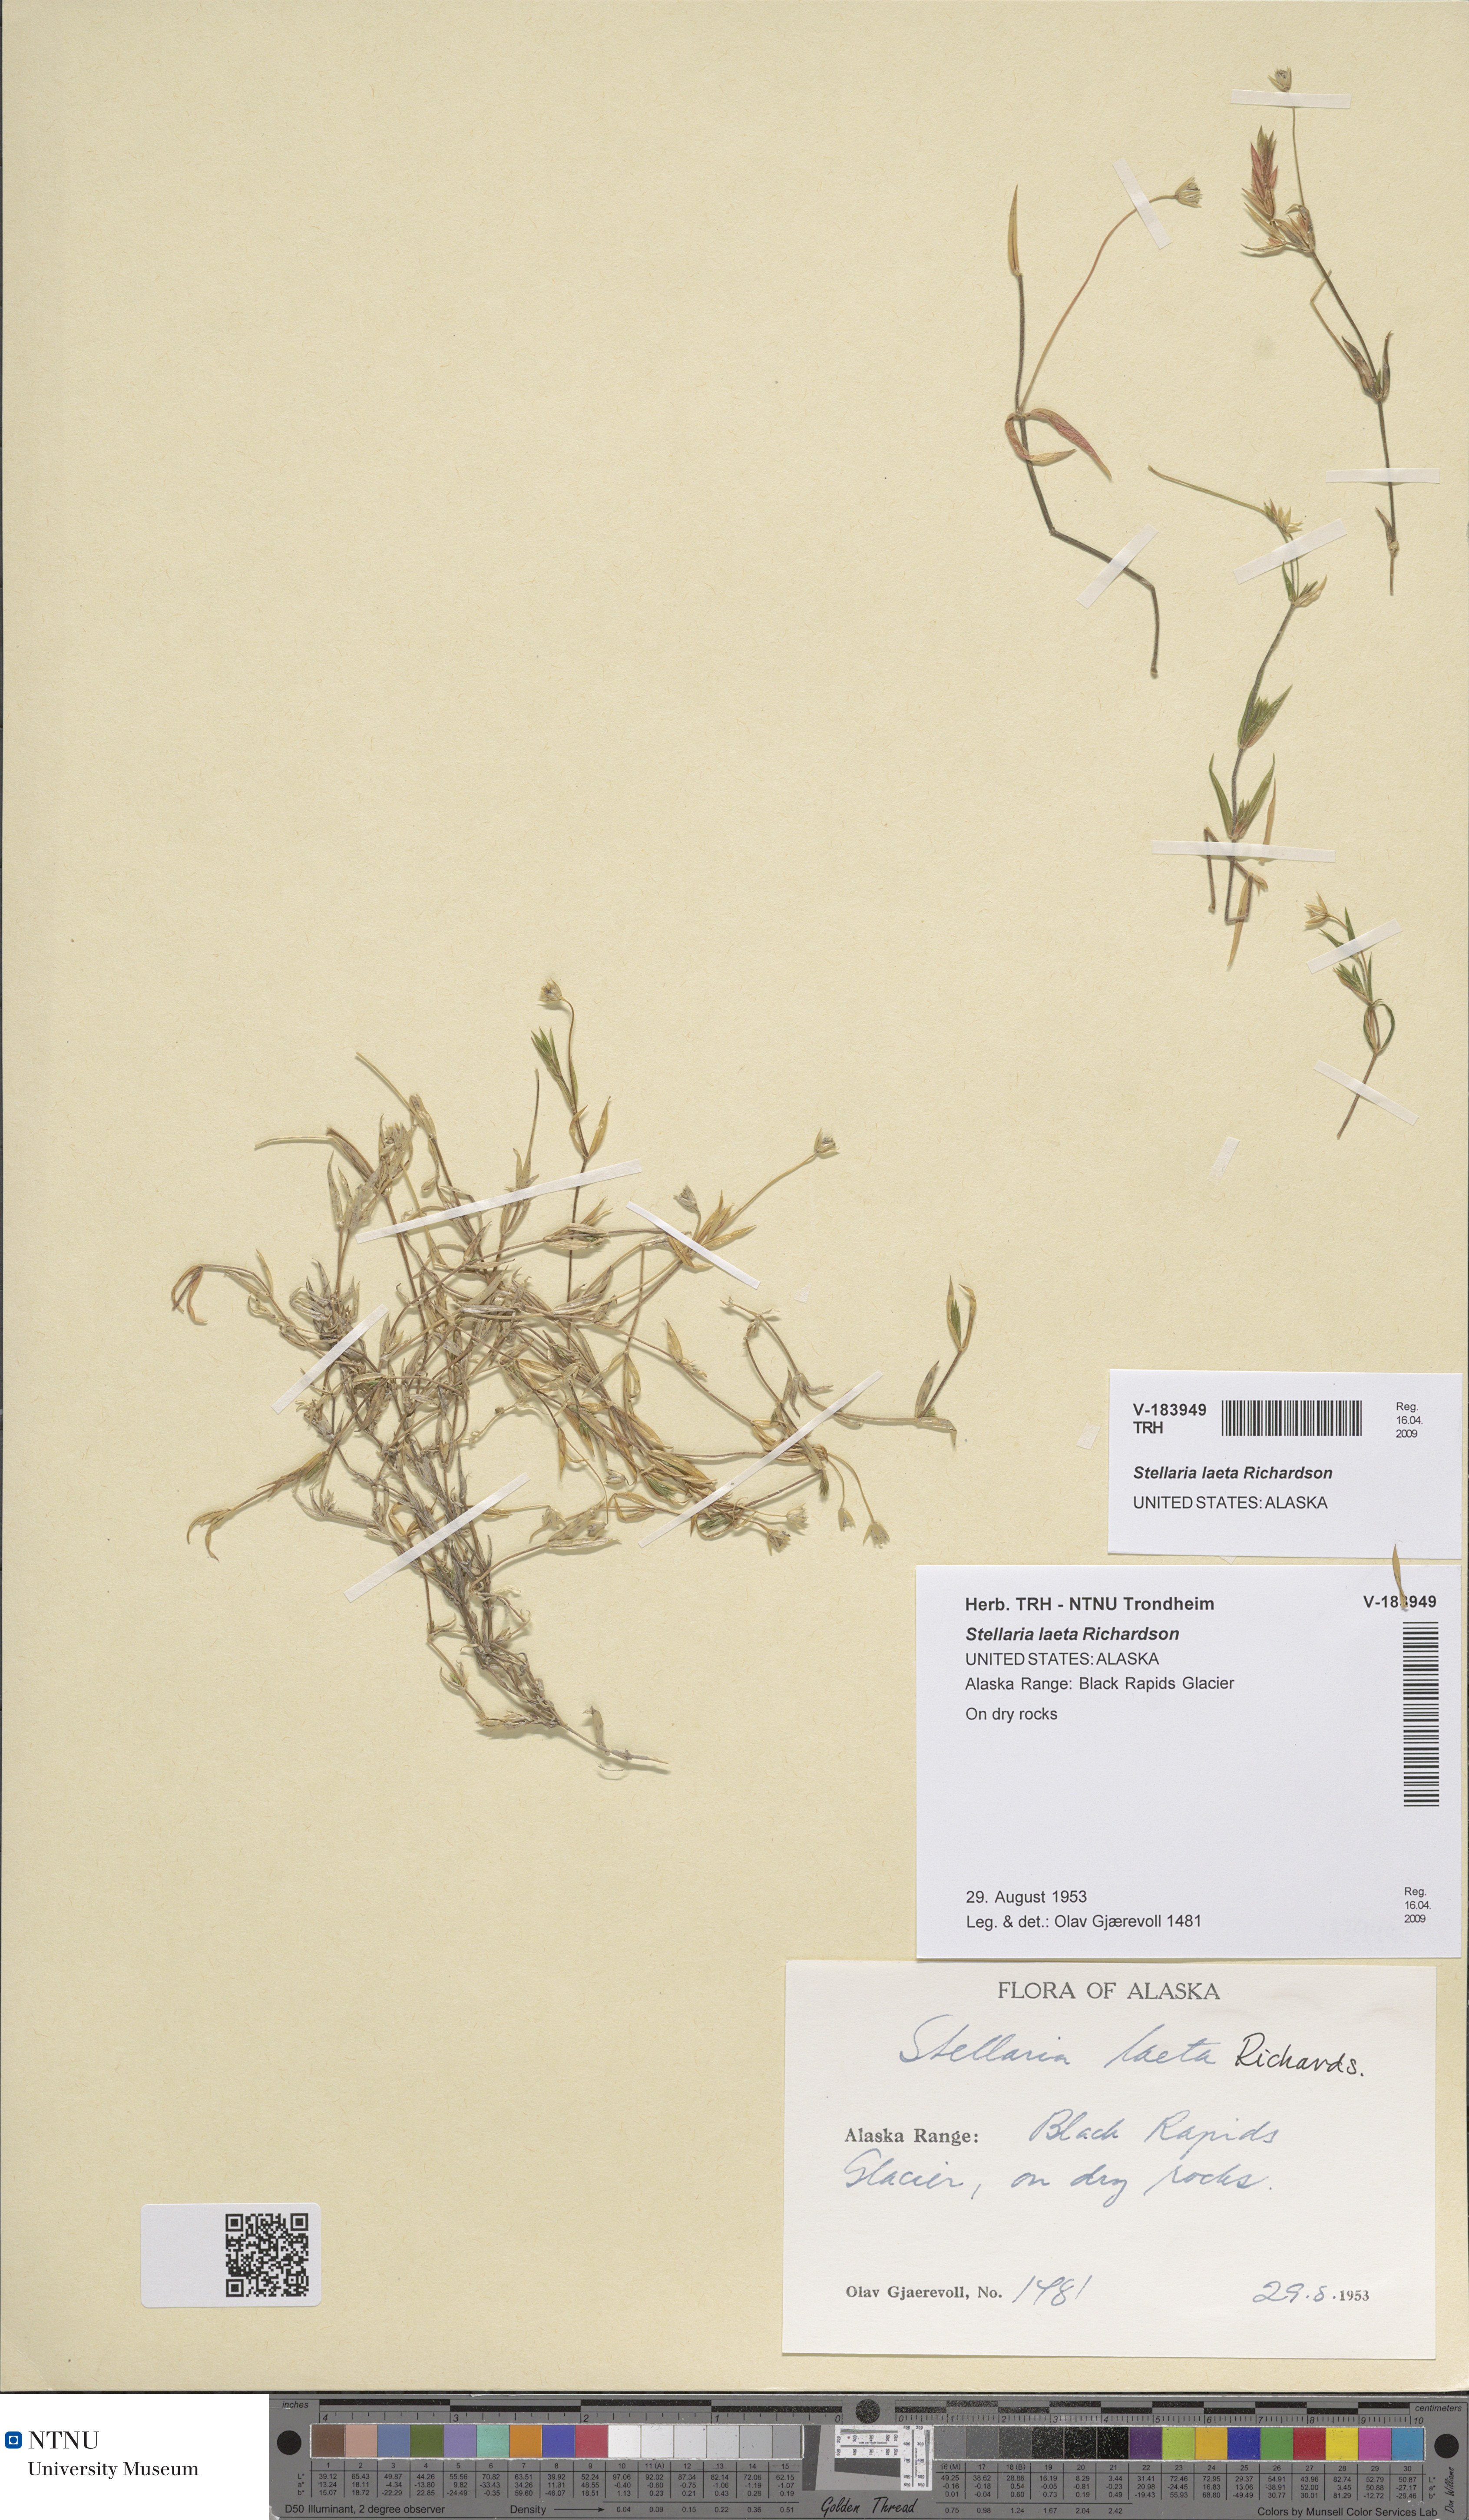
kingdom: Plantae
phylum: Tracheophyta
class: Magnoliopsida
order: Caryophyllales
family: Caryophyllaceae
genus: Stellaria
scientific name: Stellaria laeta
